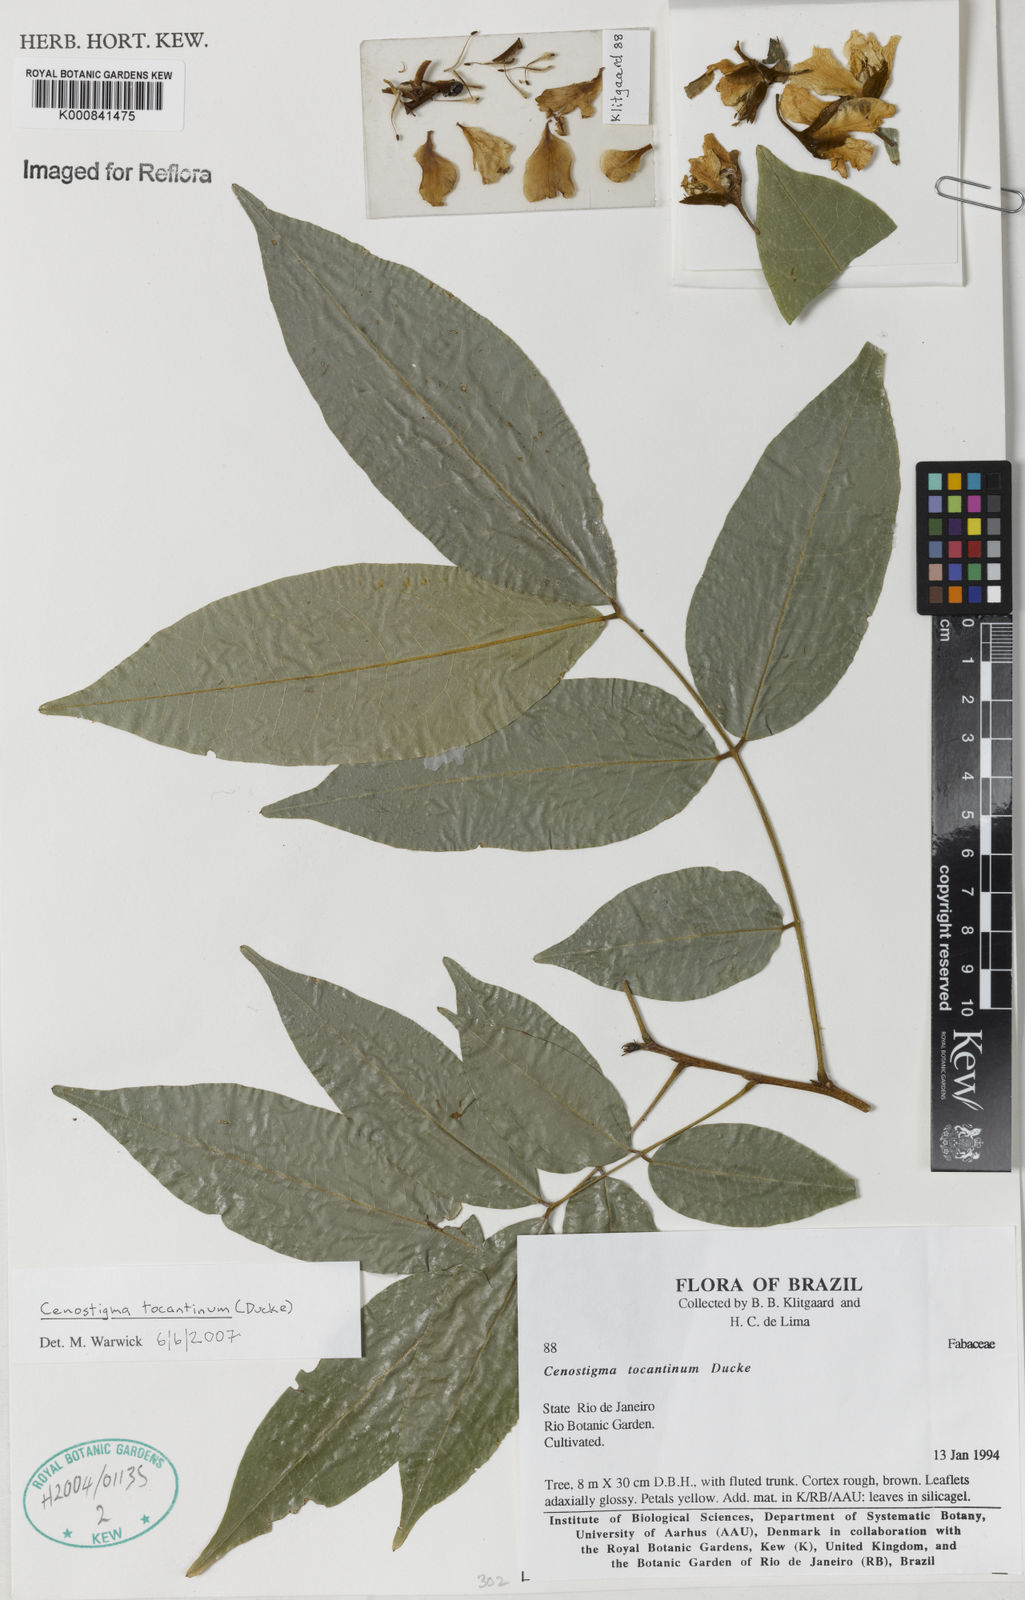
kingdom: Plantae
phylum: Tracheophyta
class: Magnoliopsida
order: Fabales
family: Fabaceae
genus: Cenostigma
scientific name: Cenostigma tocantinum
